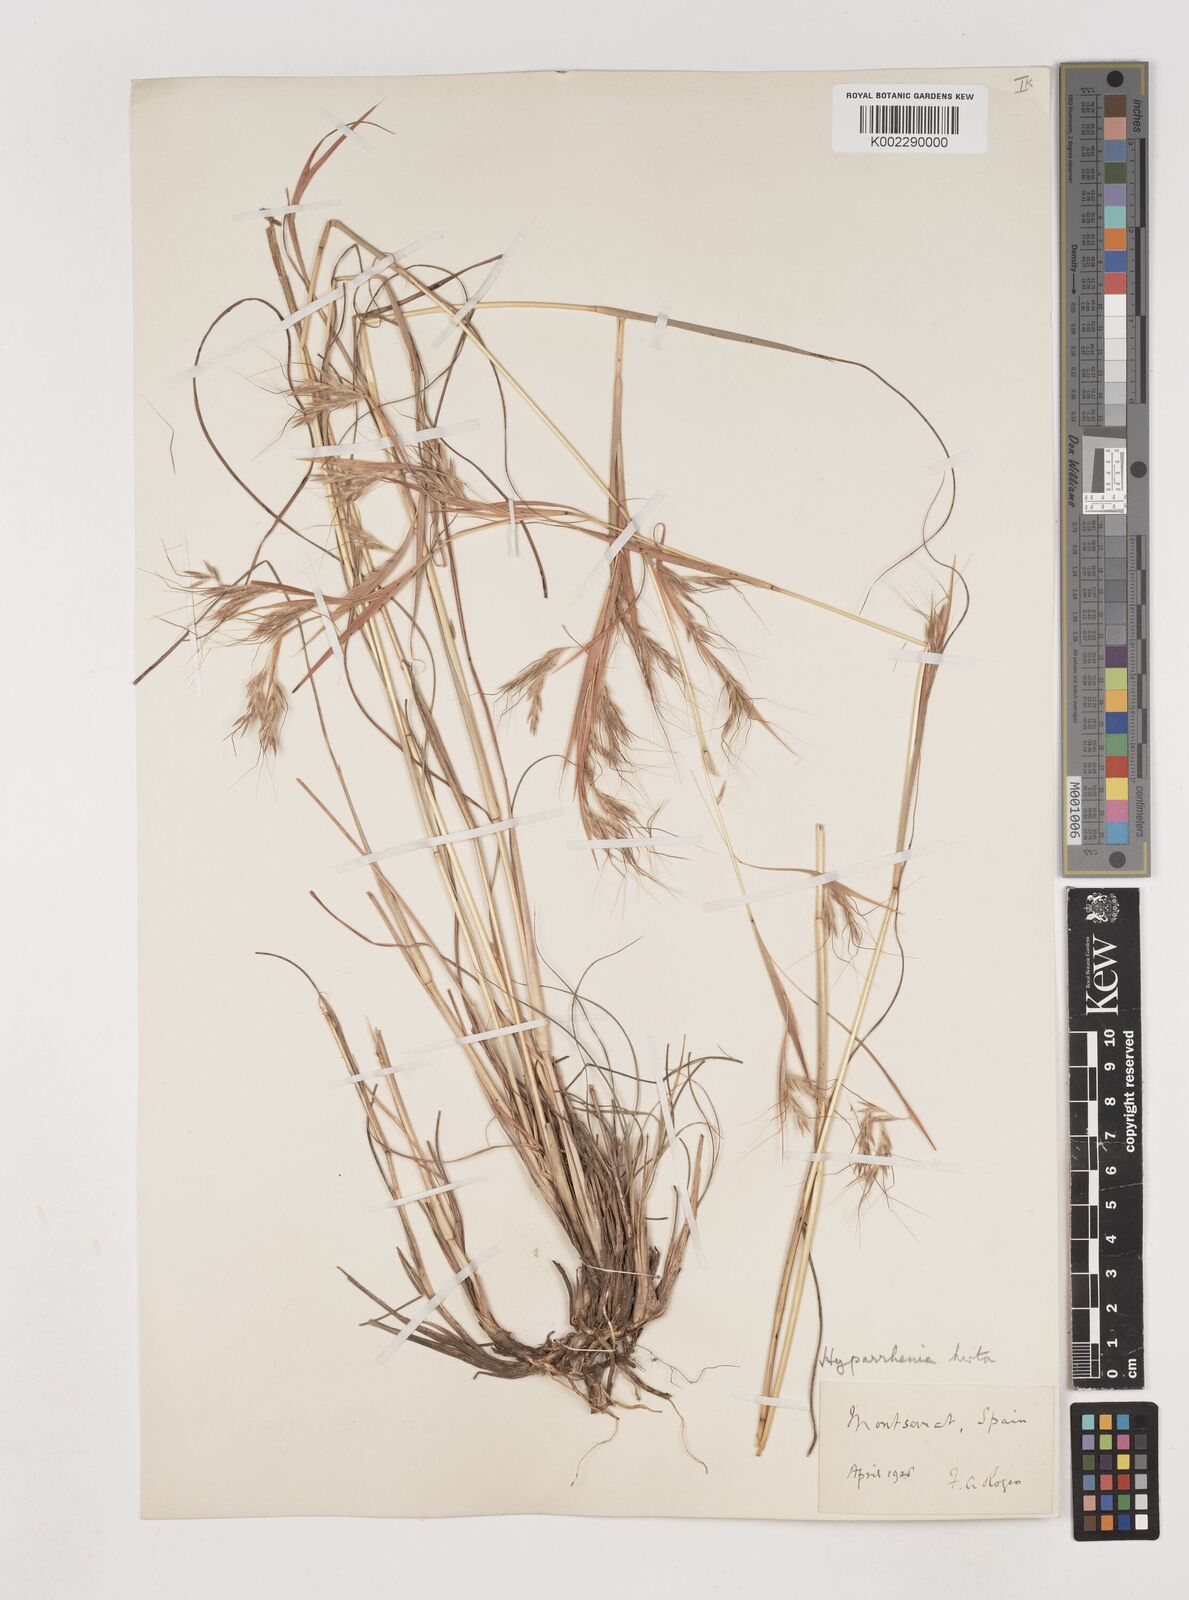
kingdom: Plantae
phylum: Tracheophyta
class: Liliopsida
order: Poales
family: Poaceae
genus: Hyparrhenia
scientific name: Hyparrhenia hirta
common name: Thatching grass
